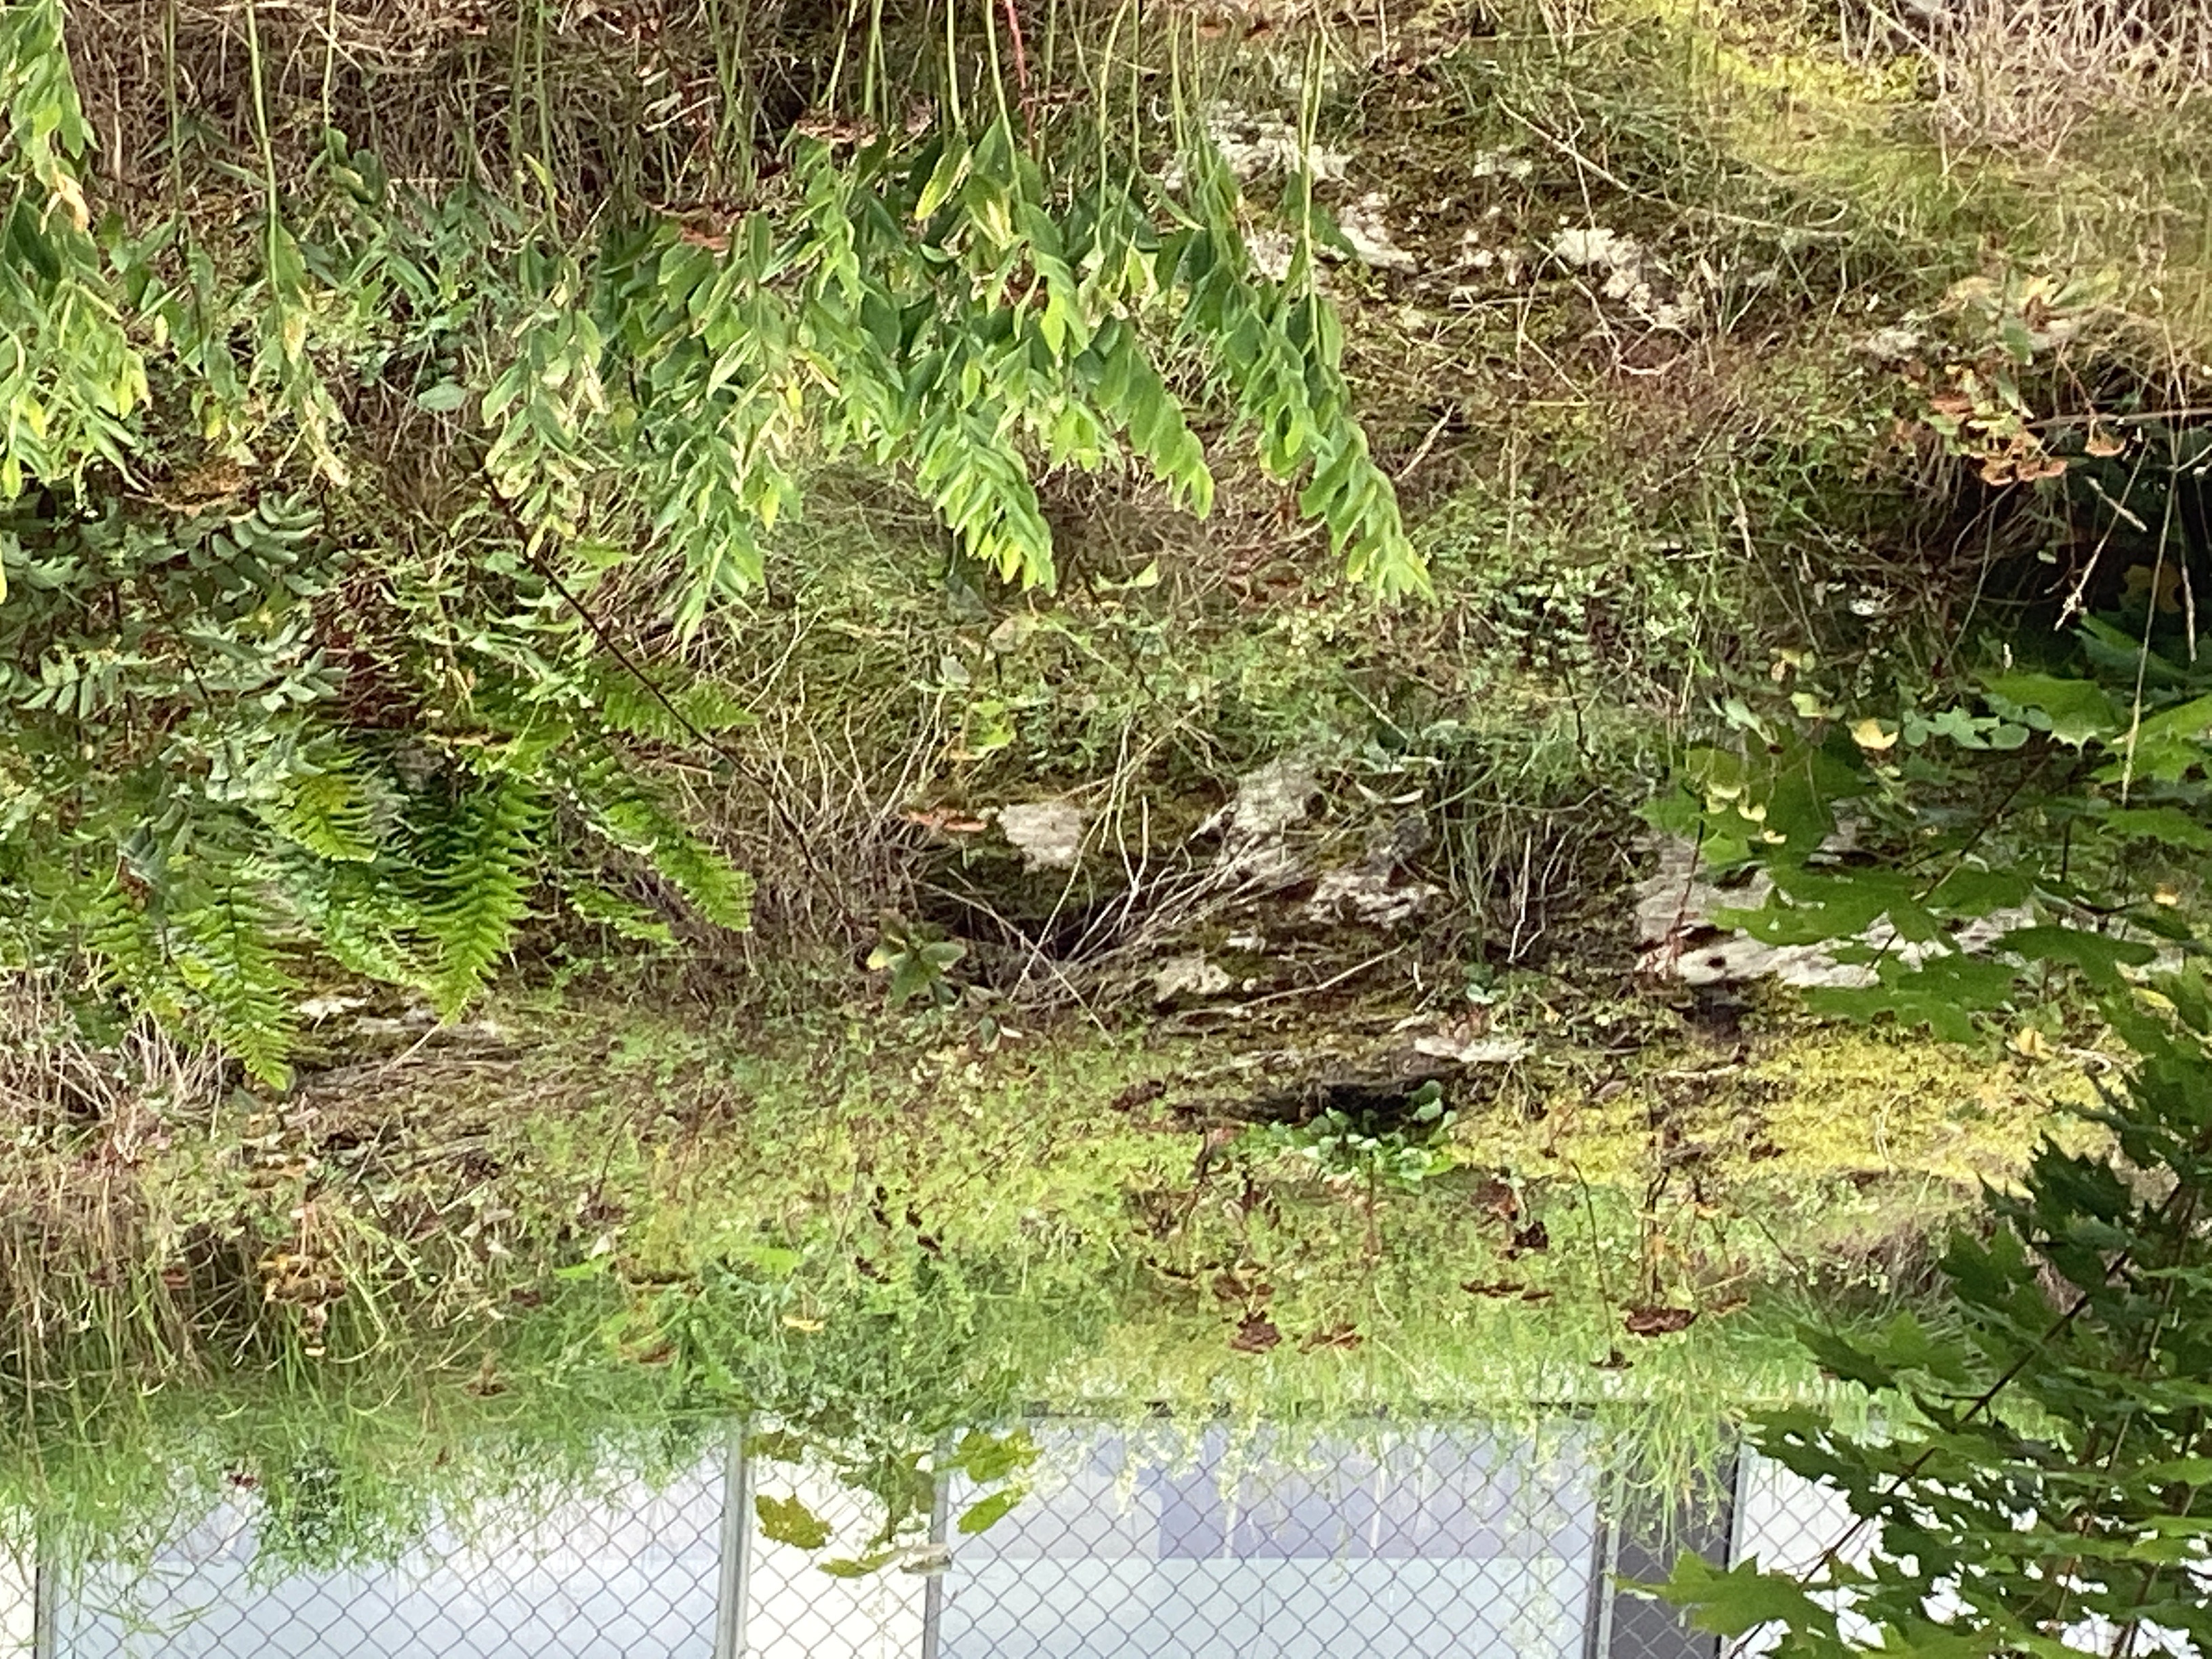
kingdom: Plantae
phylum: Tracheophyta
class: Magnoliopsida
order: Brassicales
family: Brassicaceae
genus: Barbarea
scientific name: Barbarea vulgaris
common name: vinterkarse
